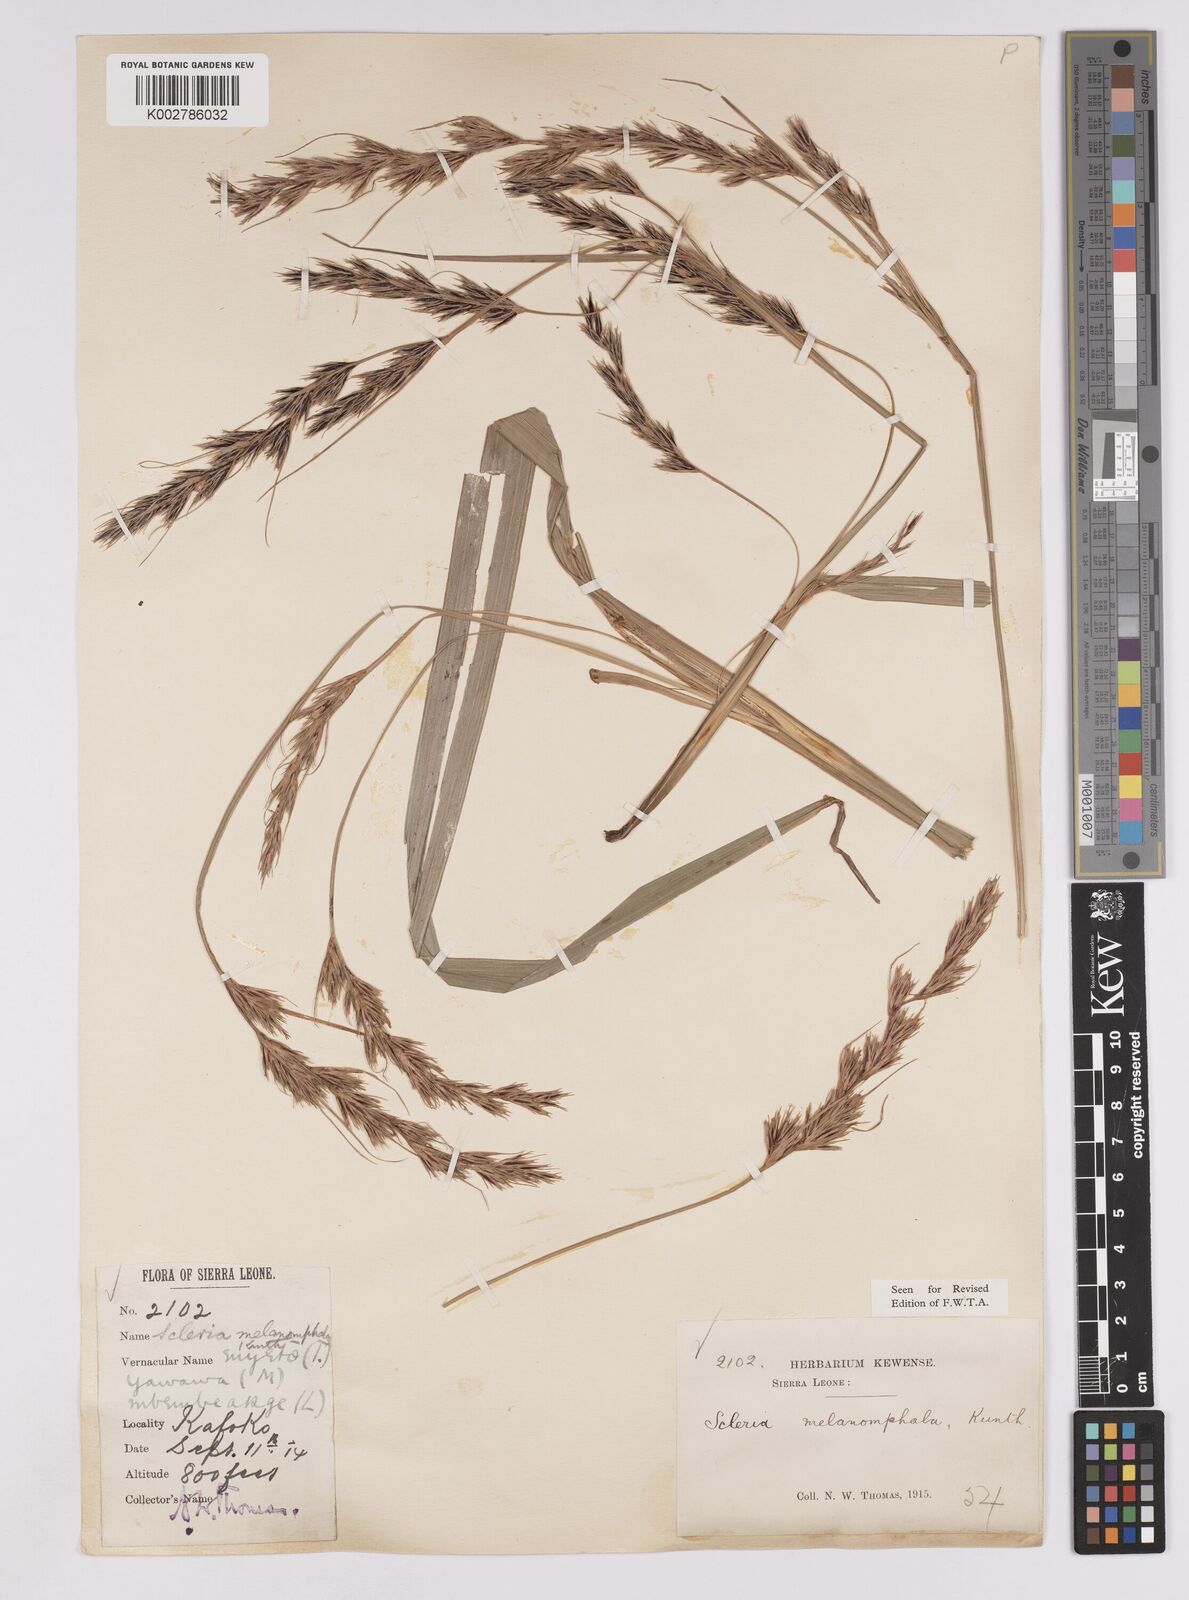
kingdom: Plantae
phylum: Tracheophyta
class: Liliopsida
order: Poales
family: Cyperaceae
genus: Scleria
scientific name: Scleria melanomphala
